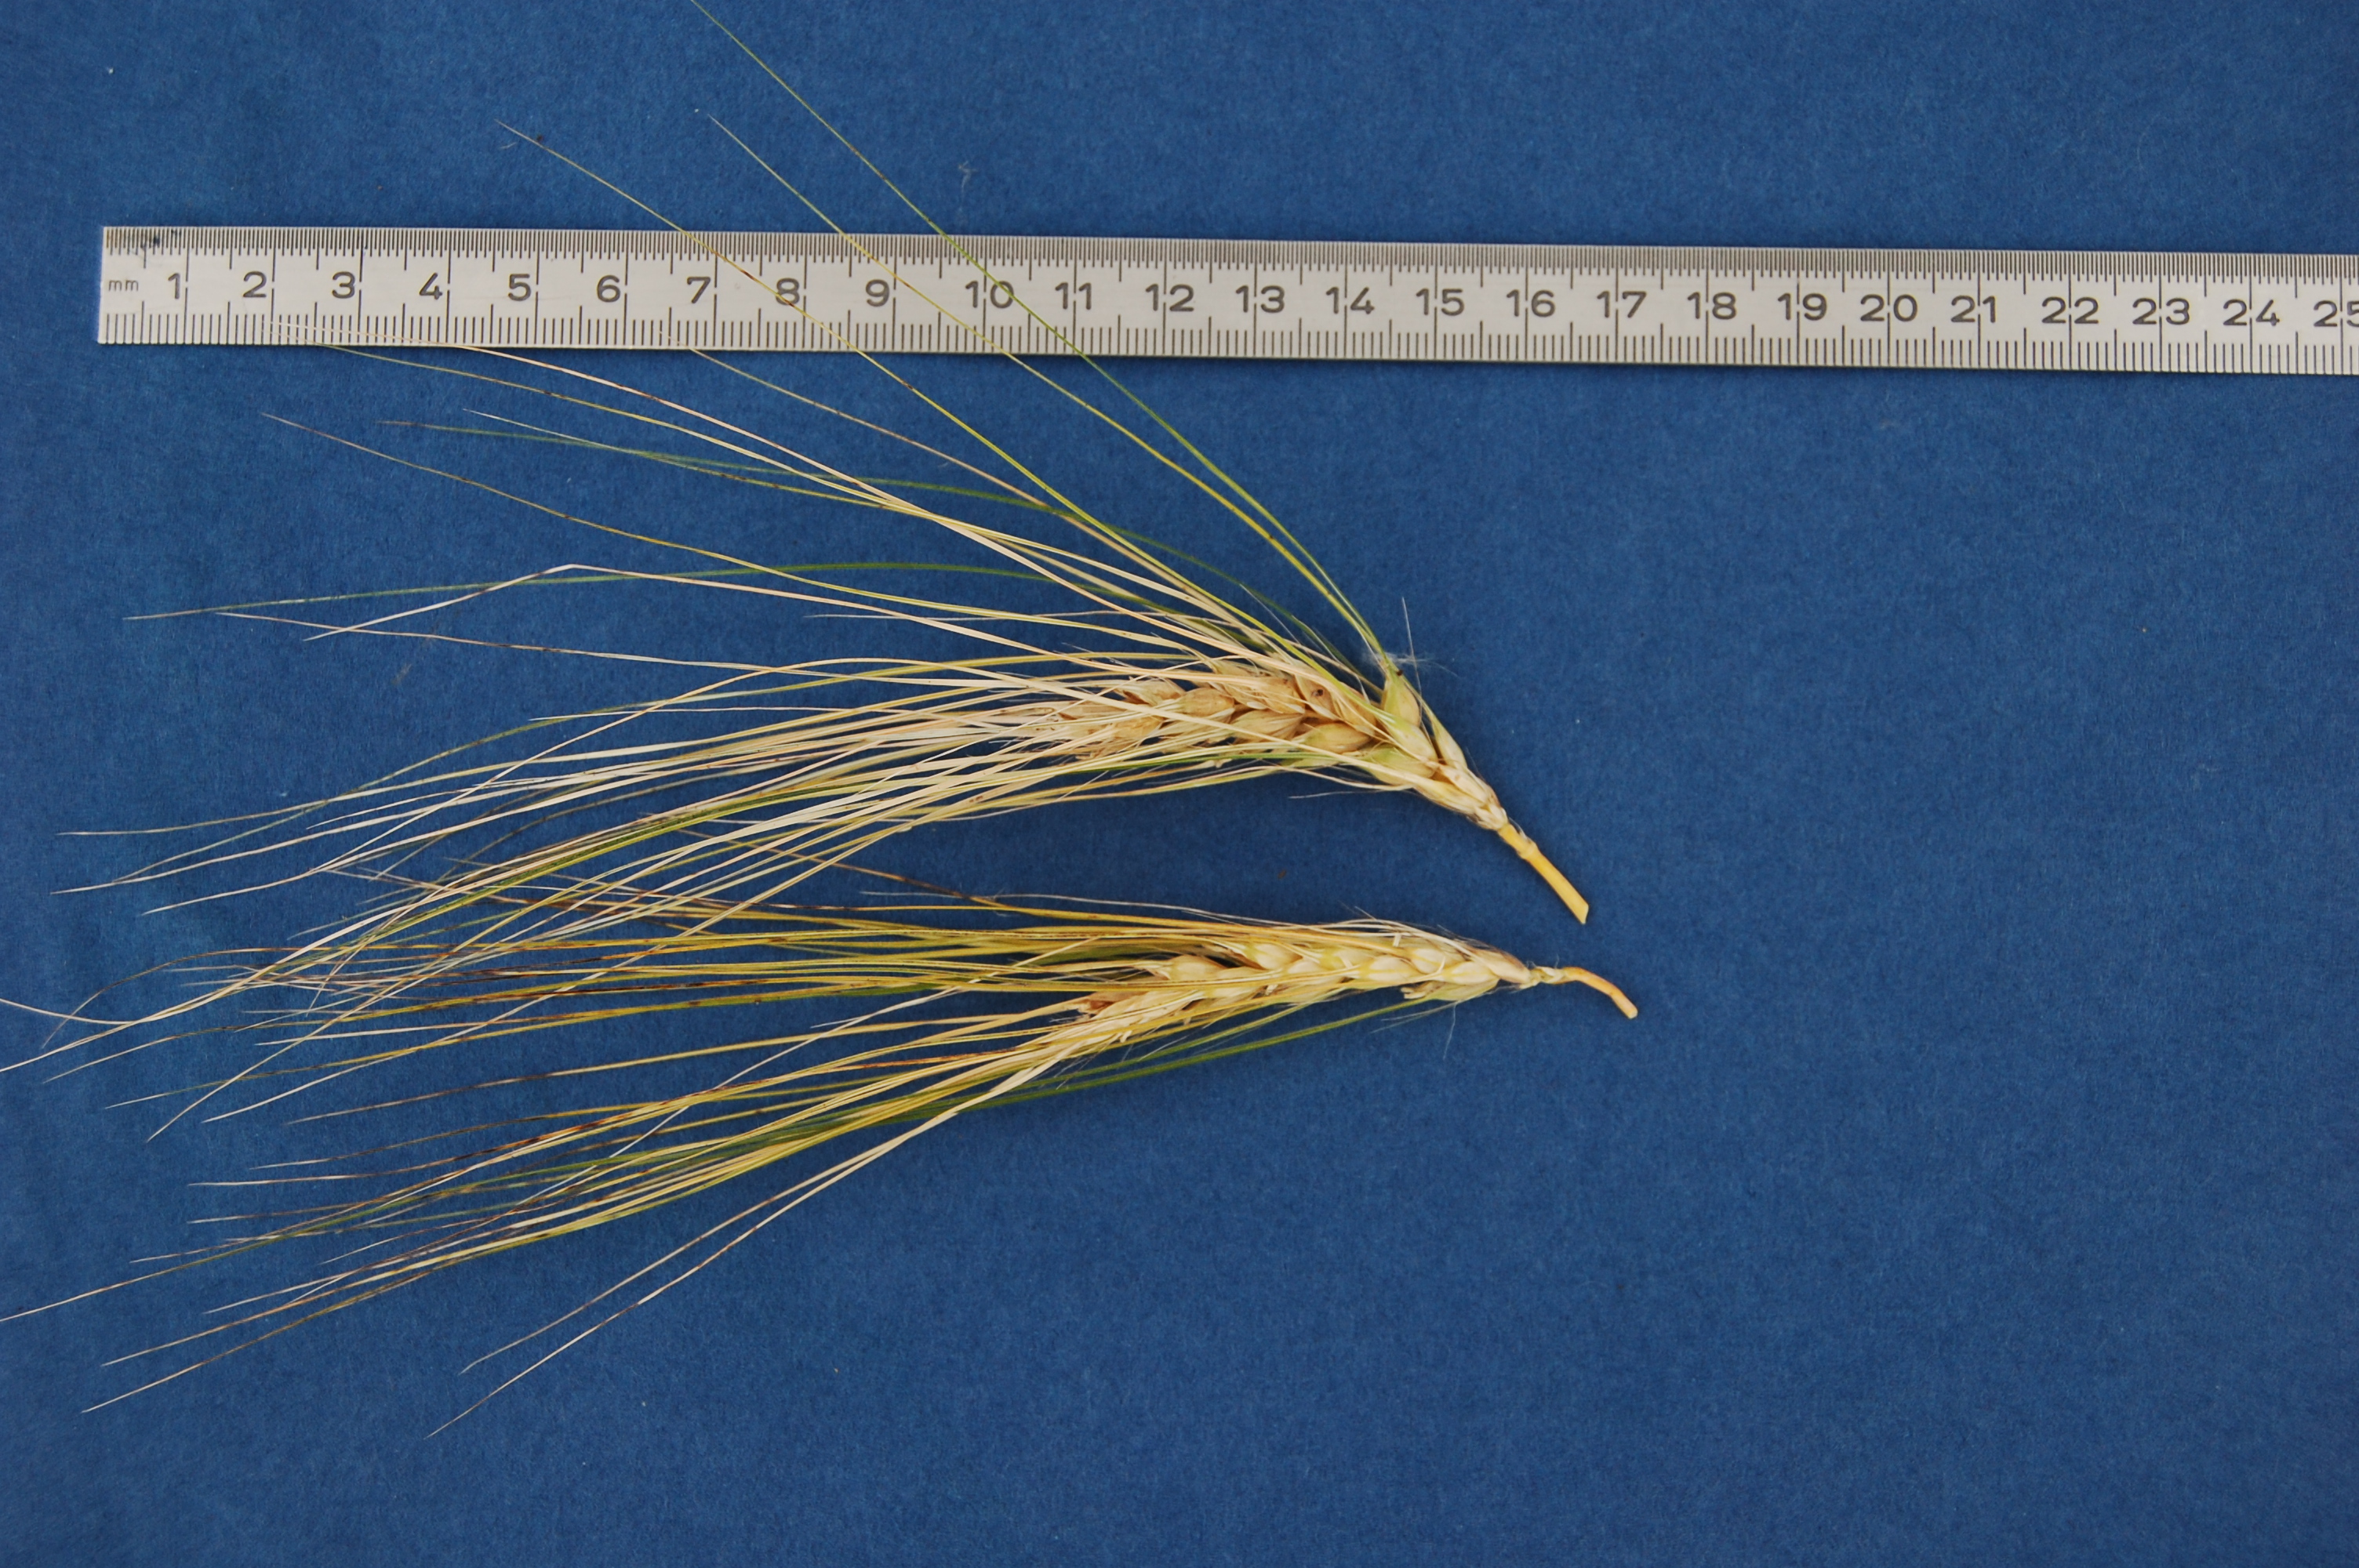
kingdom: Plantae
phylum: Tracheophyta
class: Liliopsida
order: Poales
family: Poaceae
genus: Hordeum
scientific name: Hordeum vulgare
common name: Common barley
